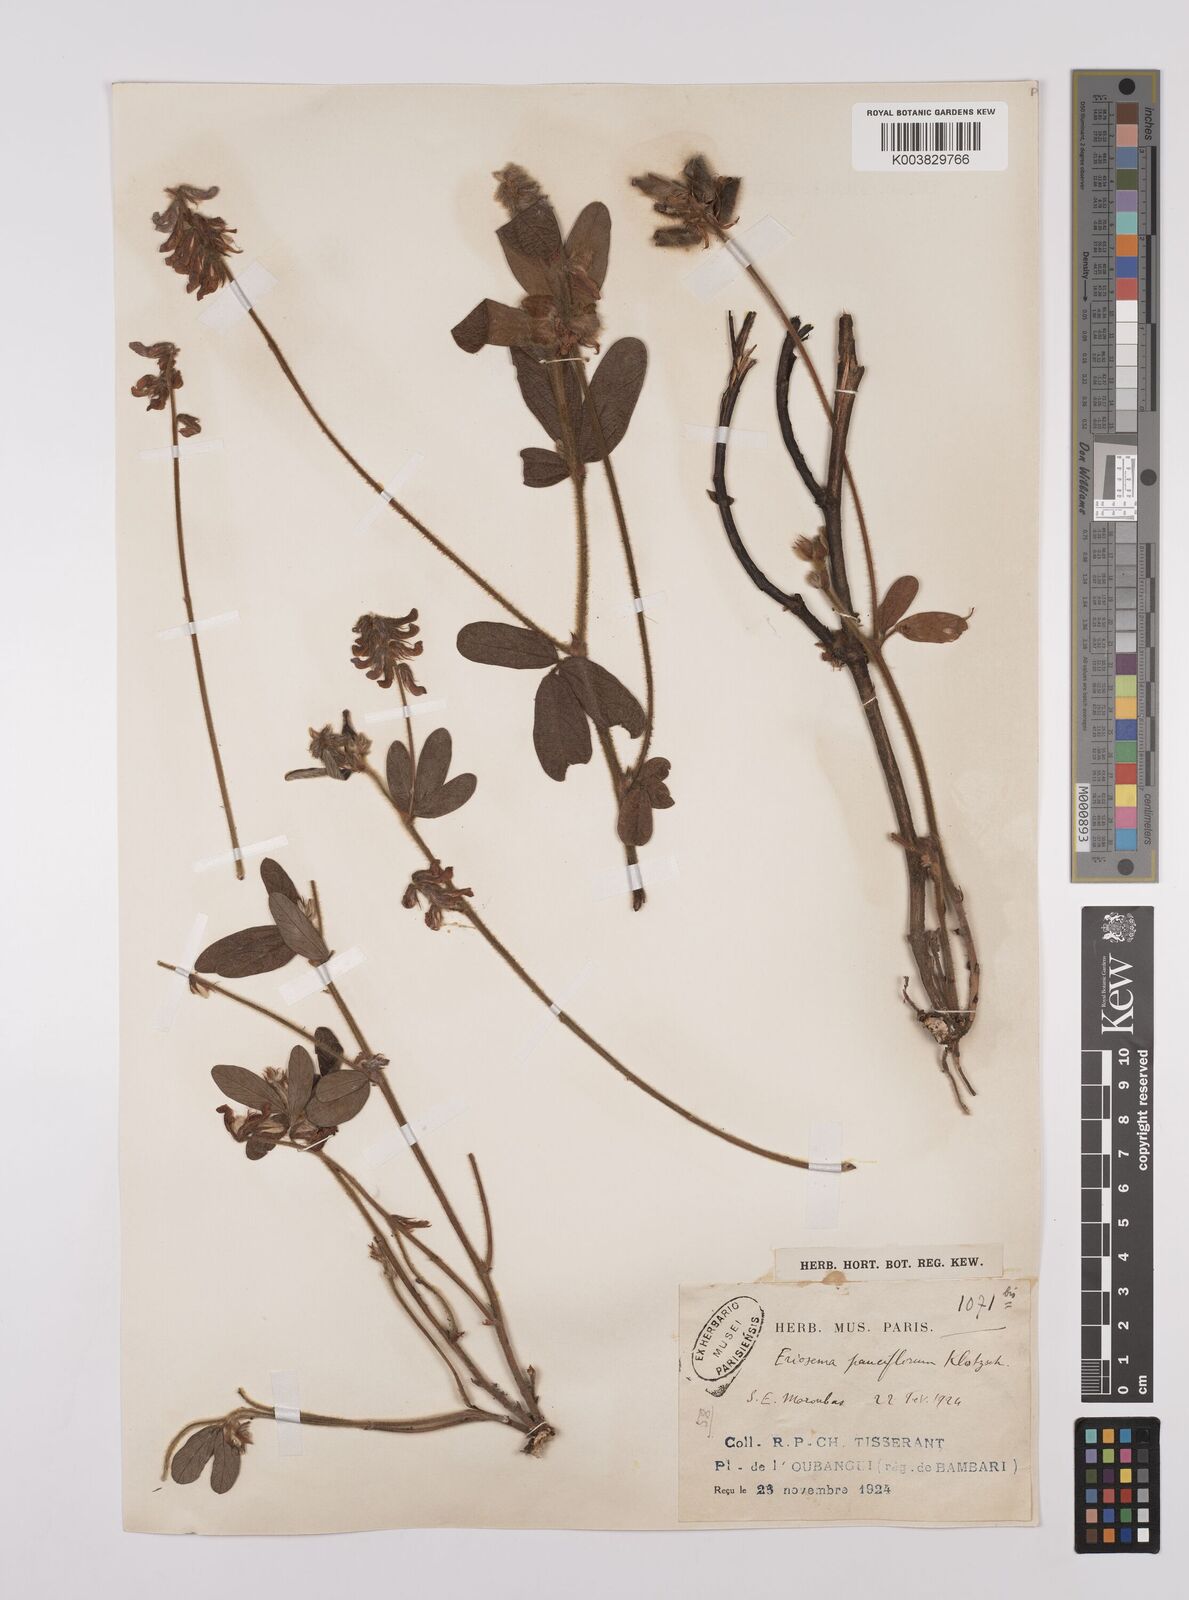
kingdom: Plantae
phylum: Tracheophyta
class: Magnoliopsida
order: Fabales
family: Fabaceae
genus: Eriosema
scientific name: Eriosema pauciflorum
